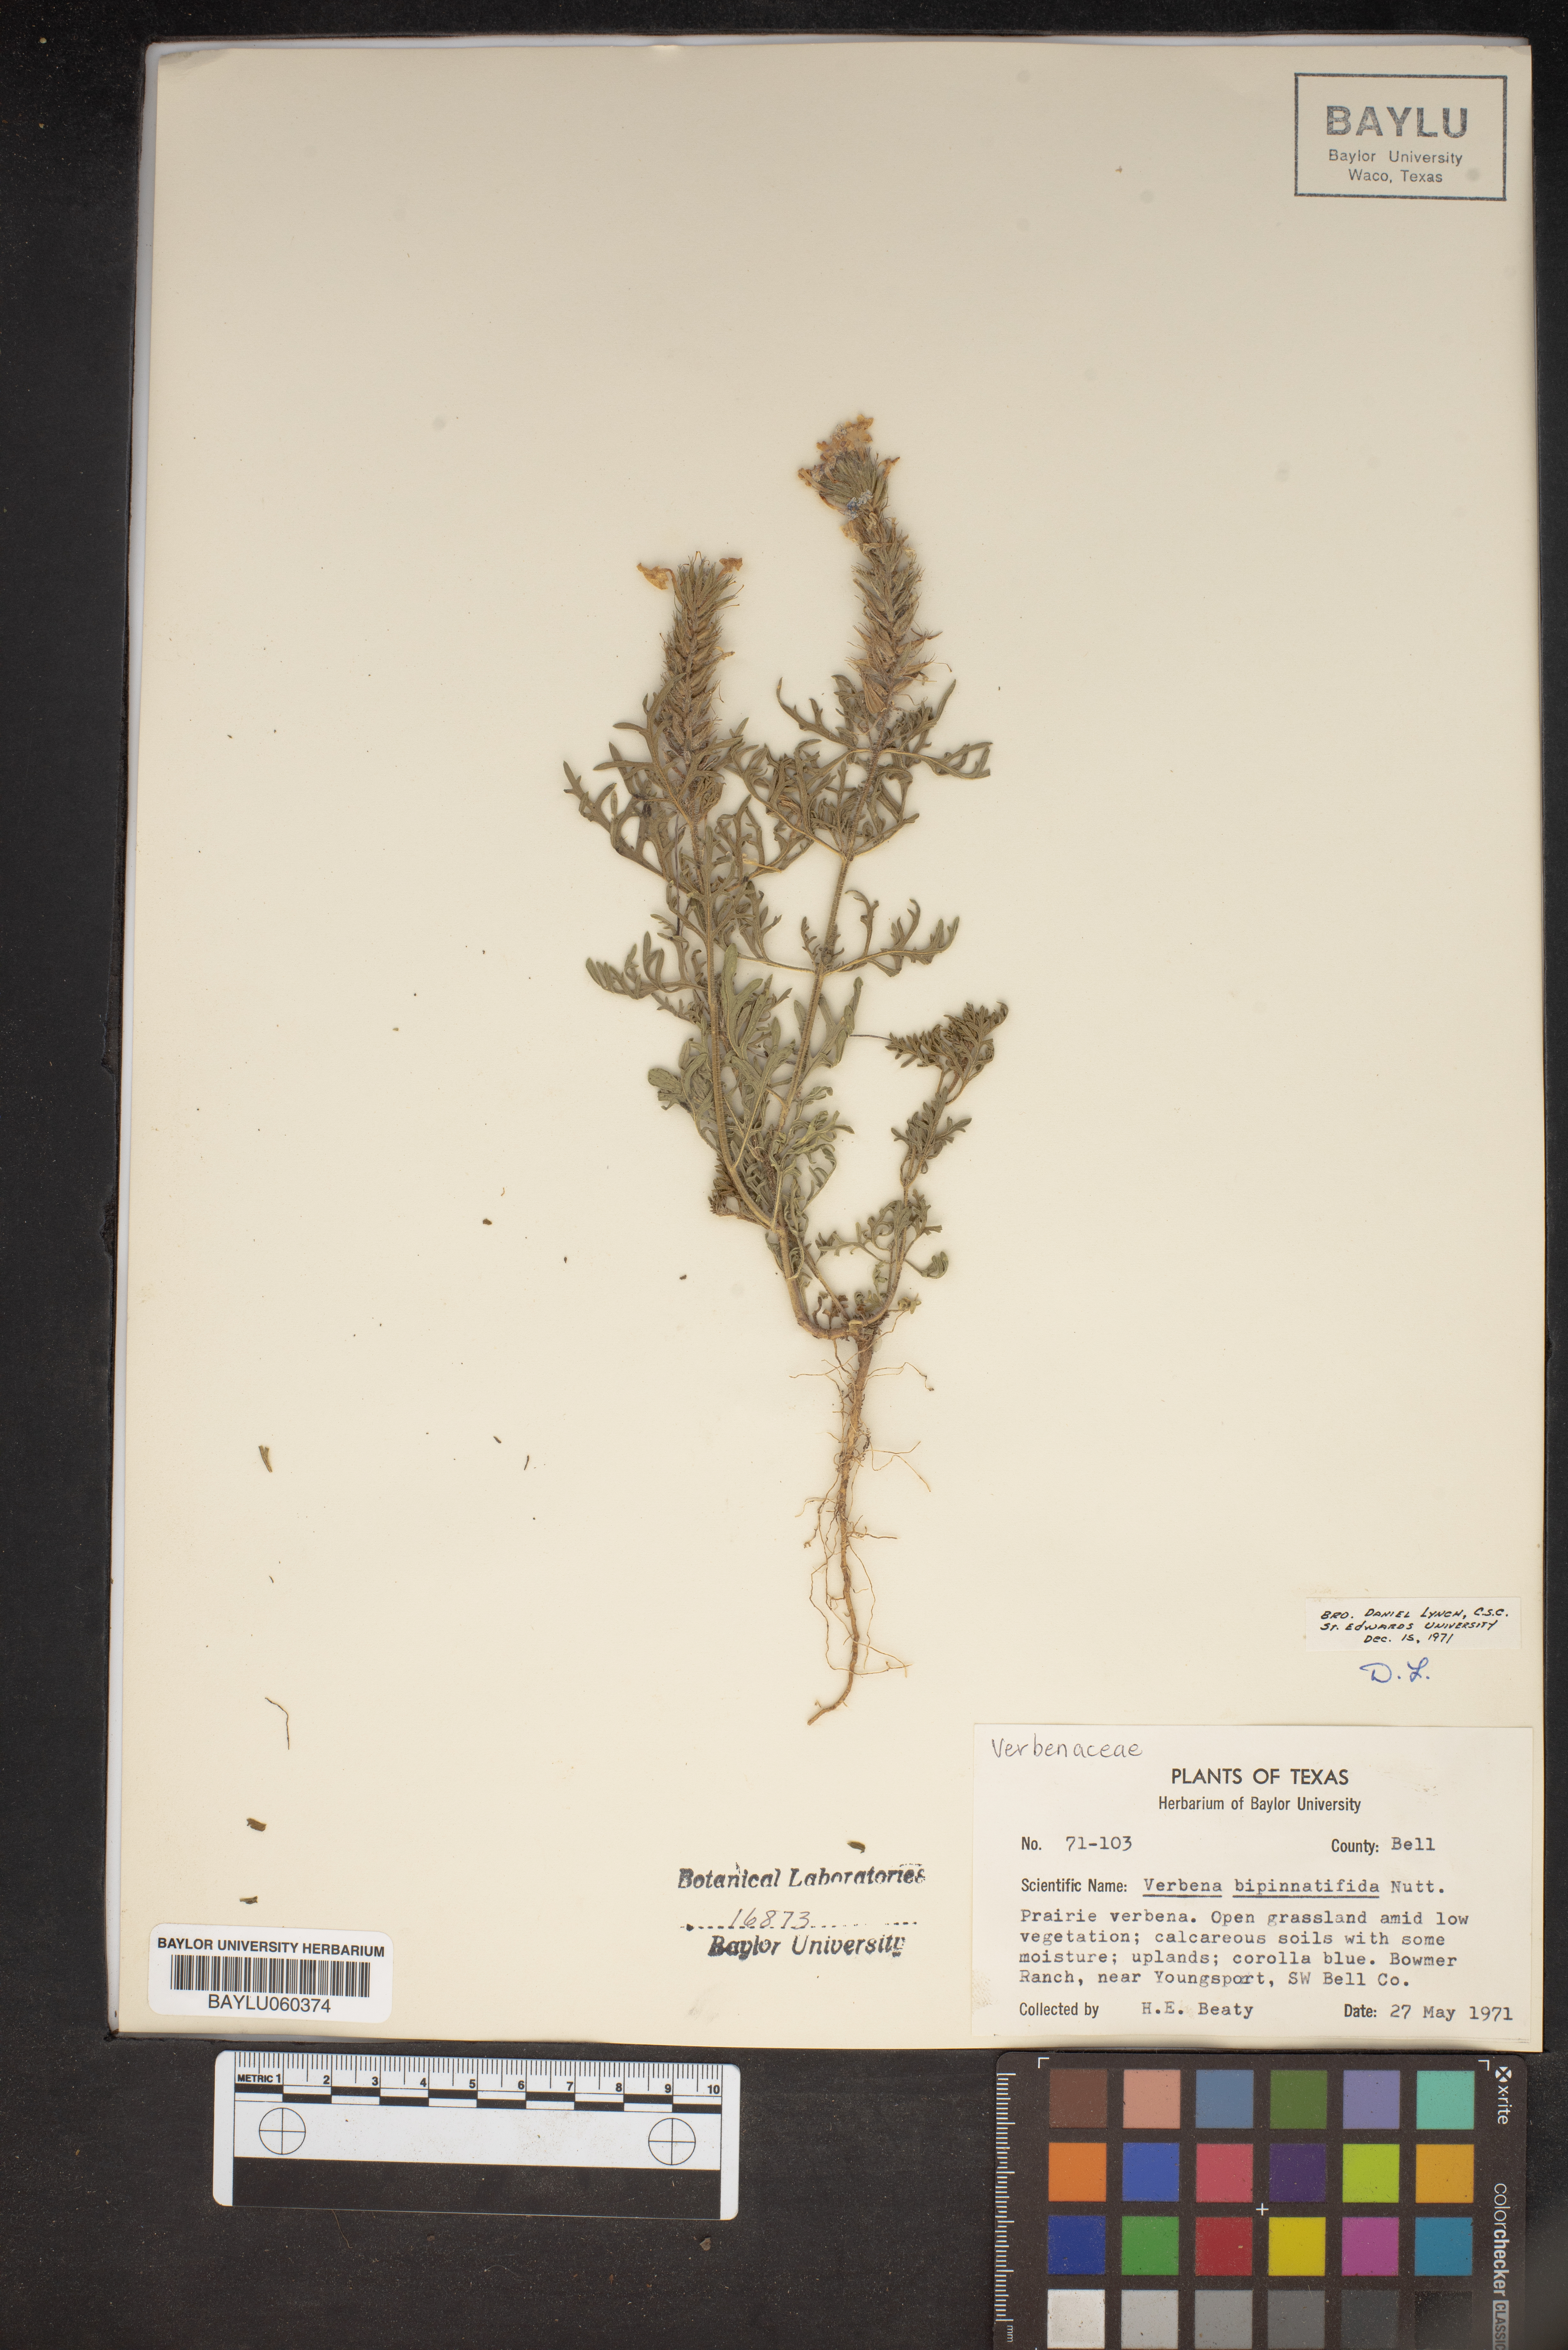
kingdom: Plantae
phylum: Tracheophyta
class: Magnoliopsida
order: Lamiales
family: Verbenaceae
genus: Verbena
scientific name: Verbena bipinnatifida
